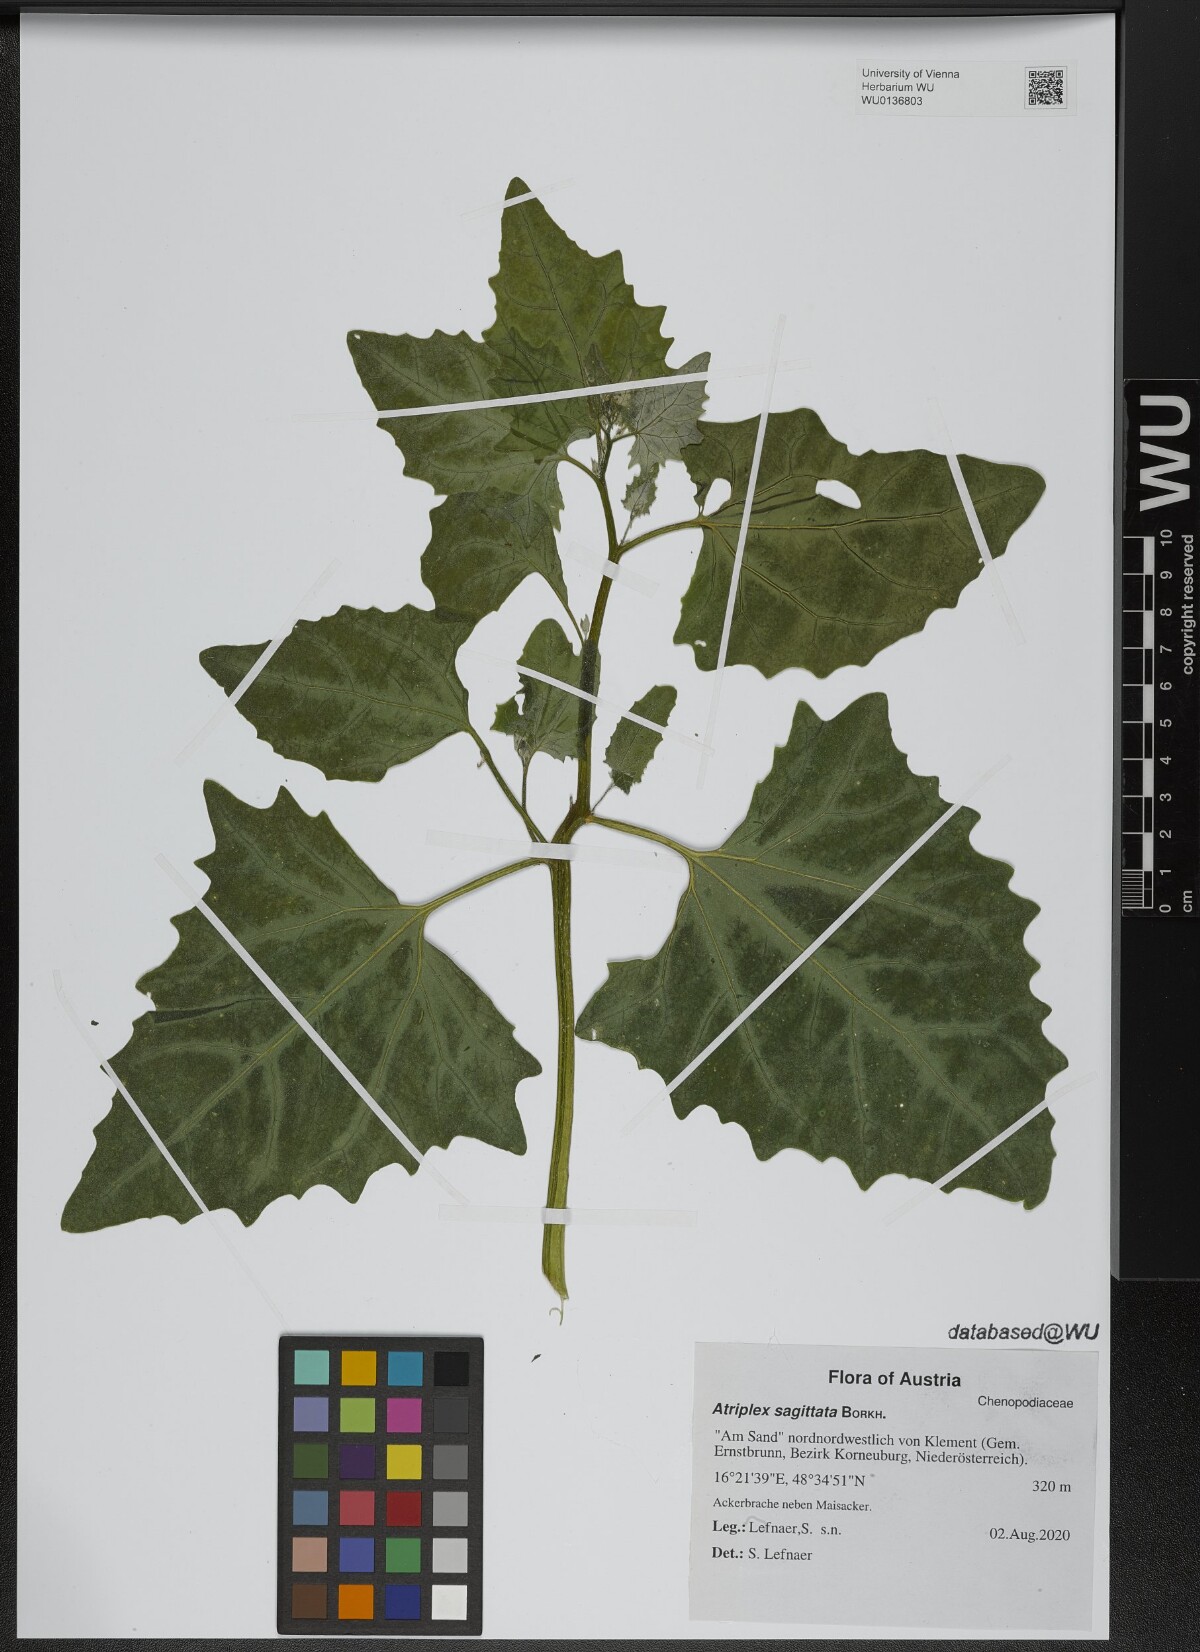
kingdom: Plantae
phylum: Tracheophyta
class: Magnoliopsida
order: Caryophyllales
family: Amaranthaceae
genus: Atriplex
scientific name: Atriplex sagittata
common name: Purple orache
